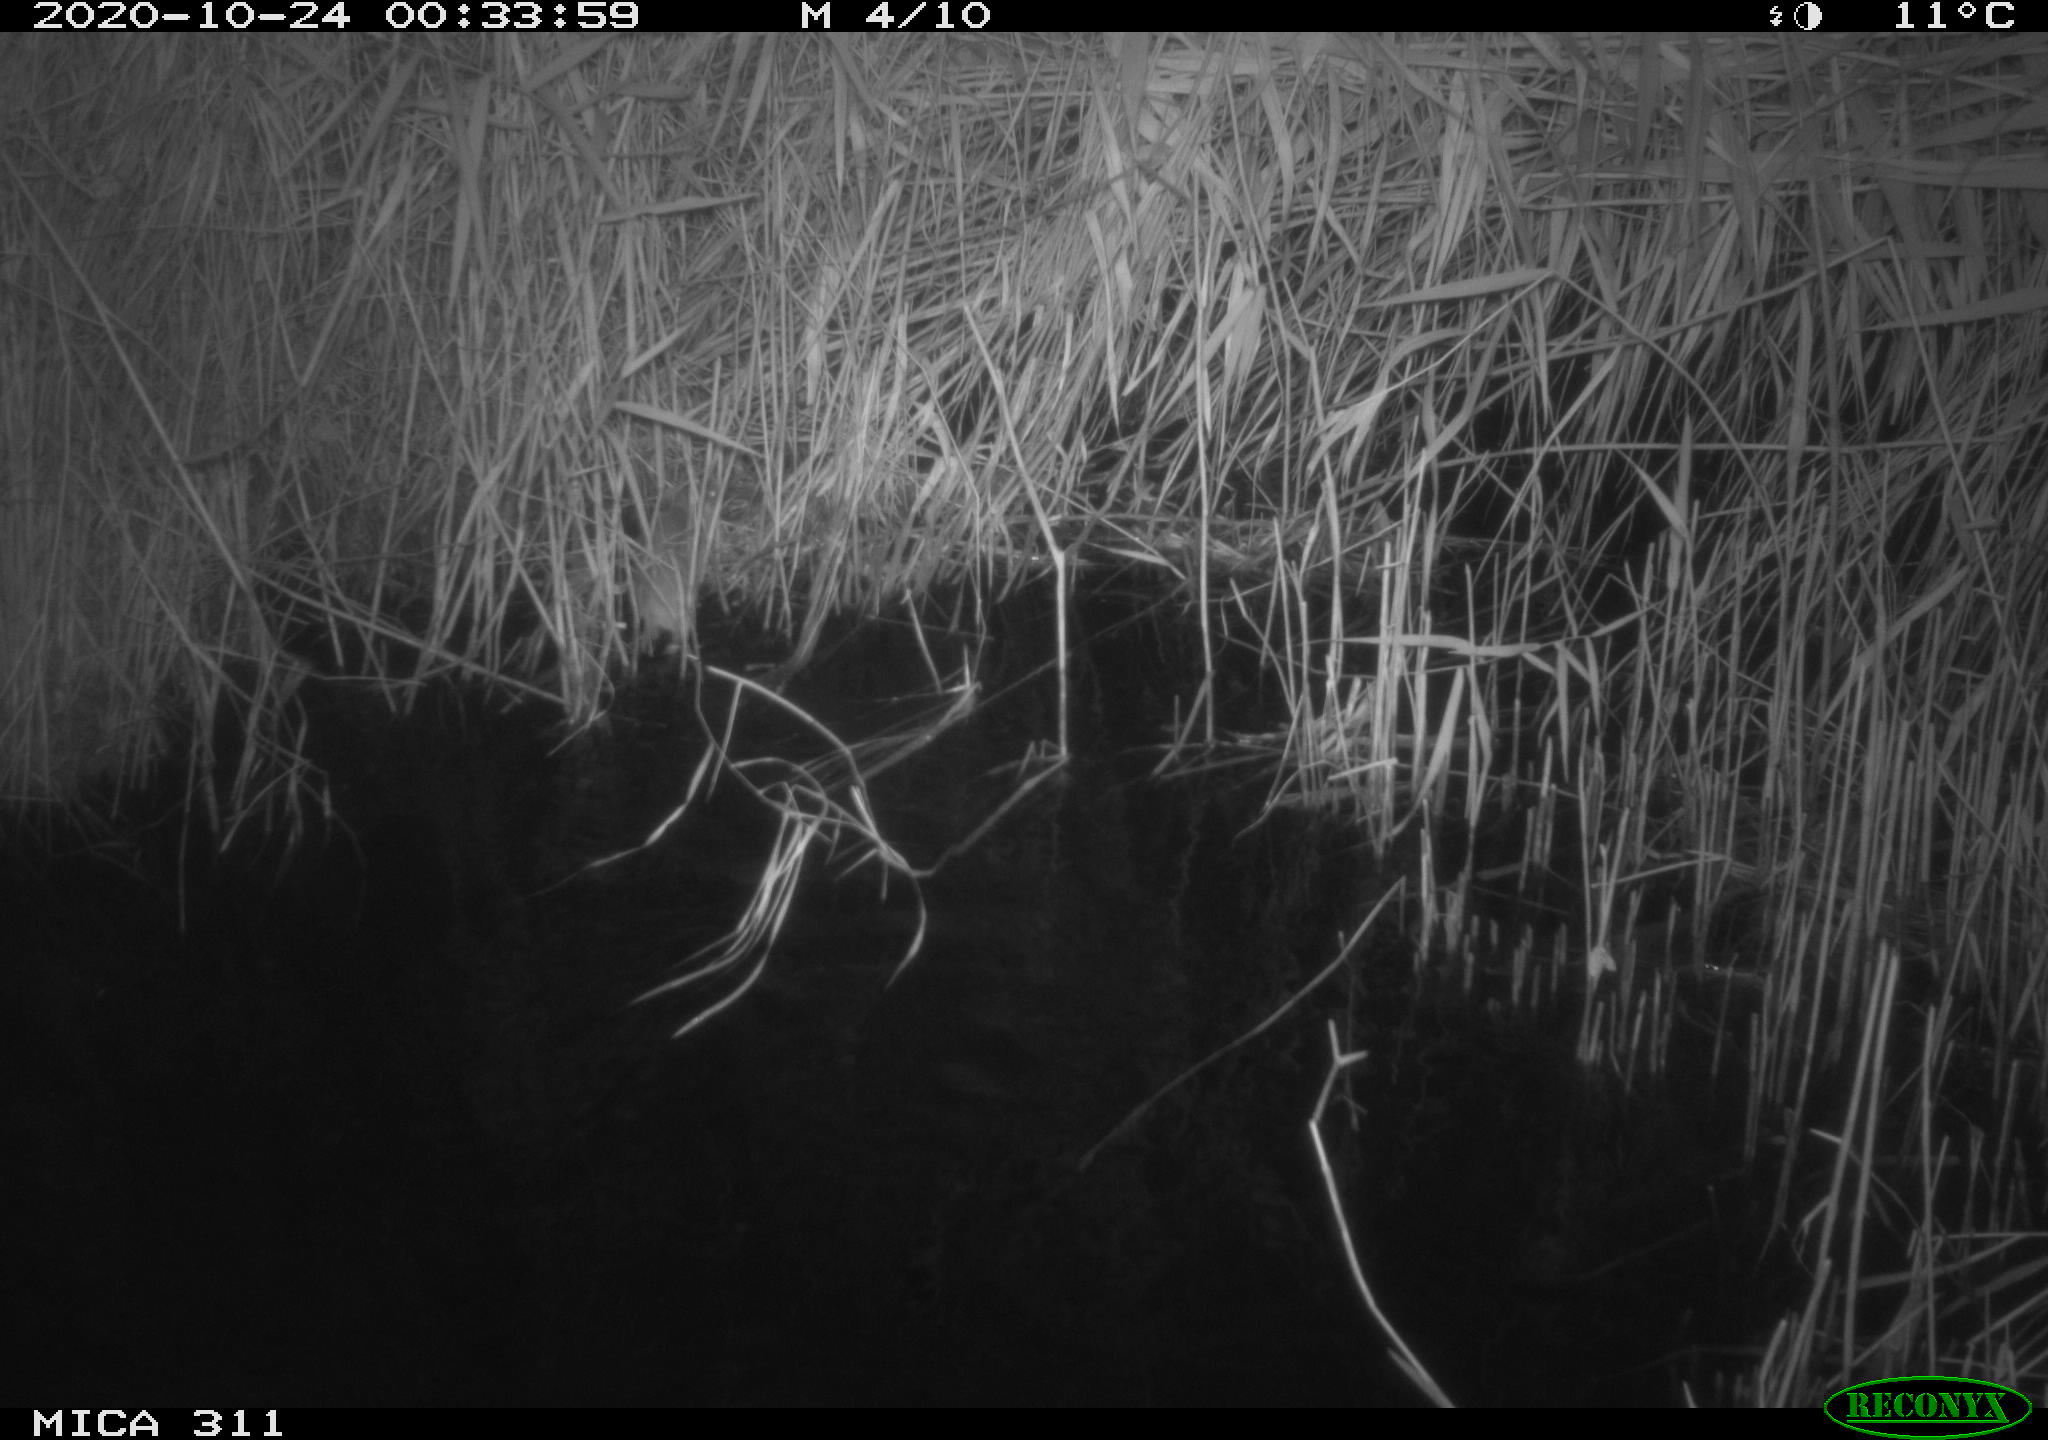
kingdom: Animalia
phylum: Chordata
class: Mammalia
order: Rodentia
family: Muridae
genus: Rattus
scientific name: Rattus norvegicus
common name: Brown rat
